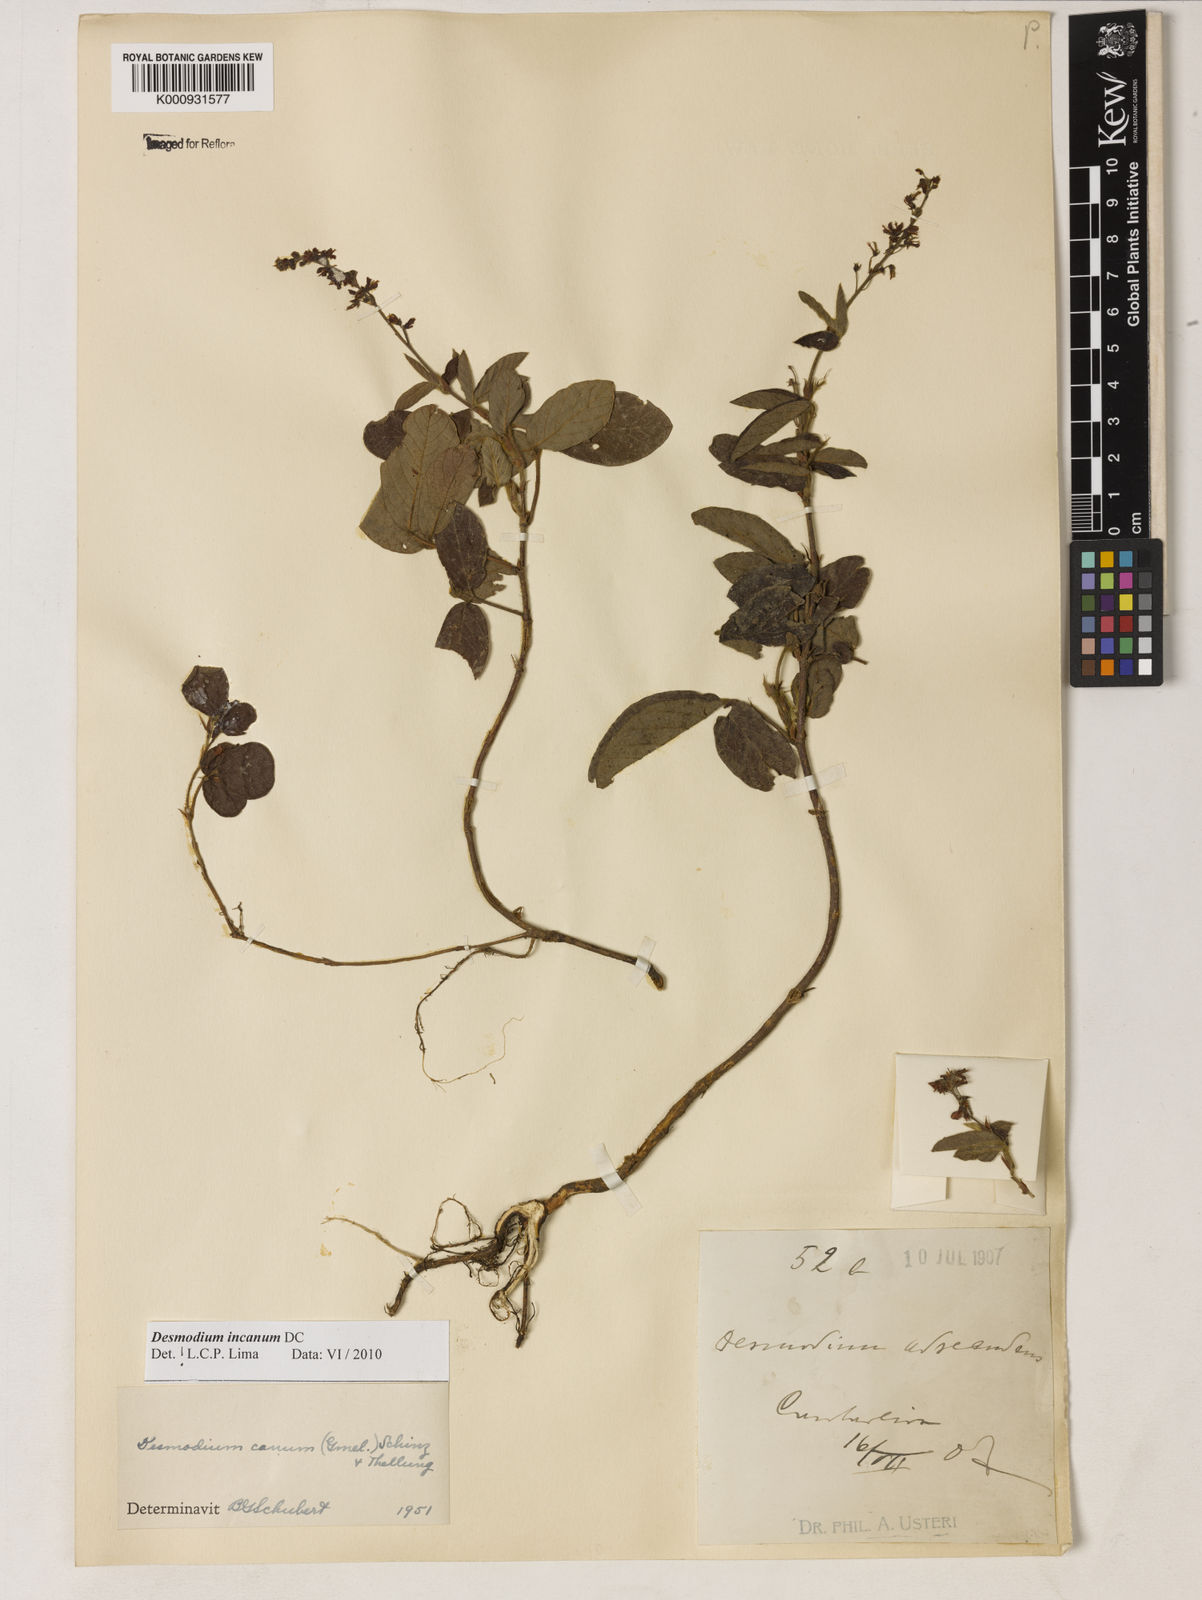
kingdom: Plantae
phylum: Tracheophyta
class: Magnoliopsida
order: Fabales
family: Fabaceae
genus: Desmodium
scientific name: Desmodium incanum
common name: Tickclover
